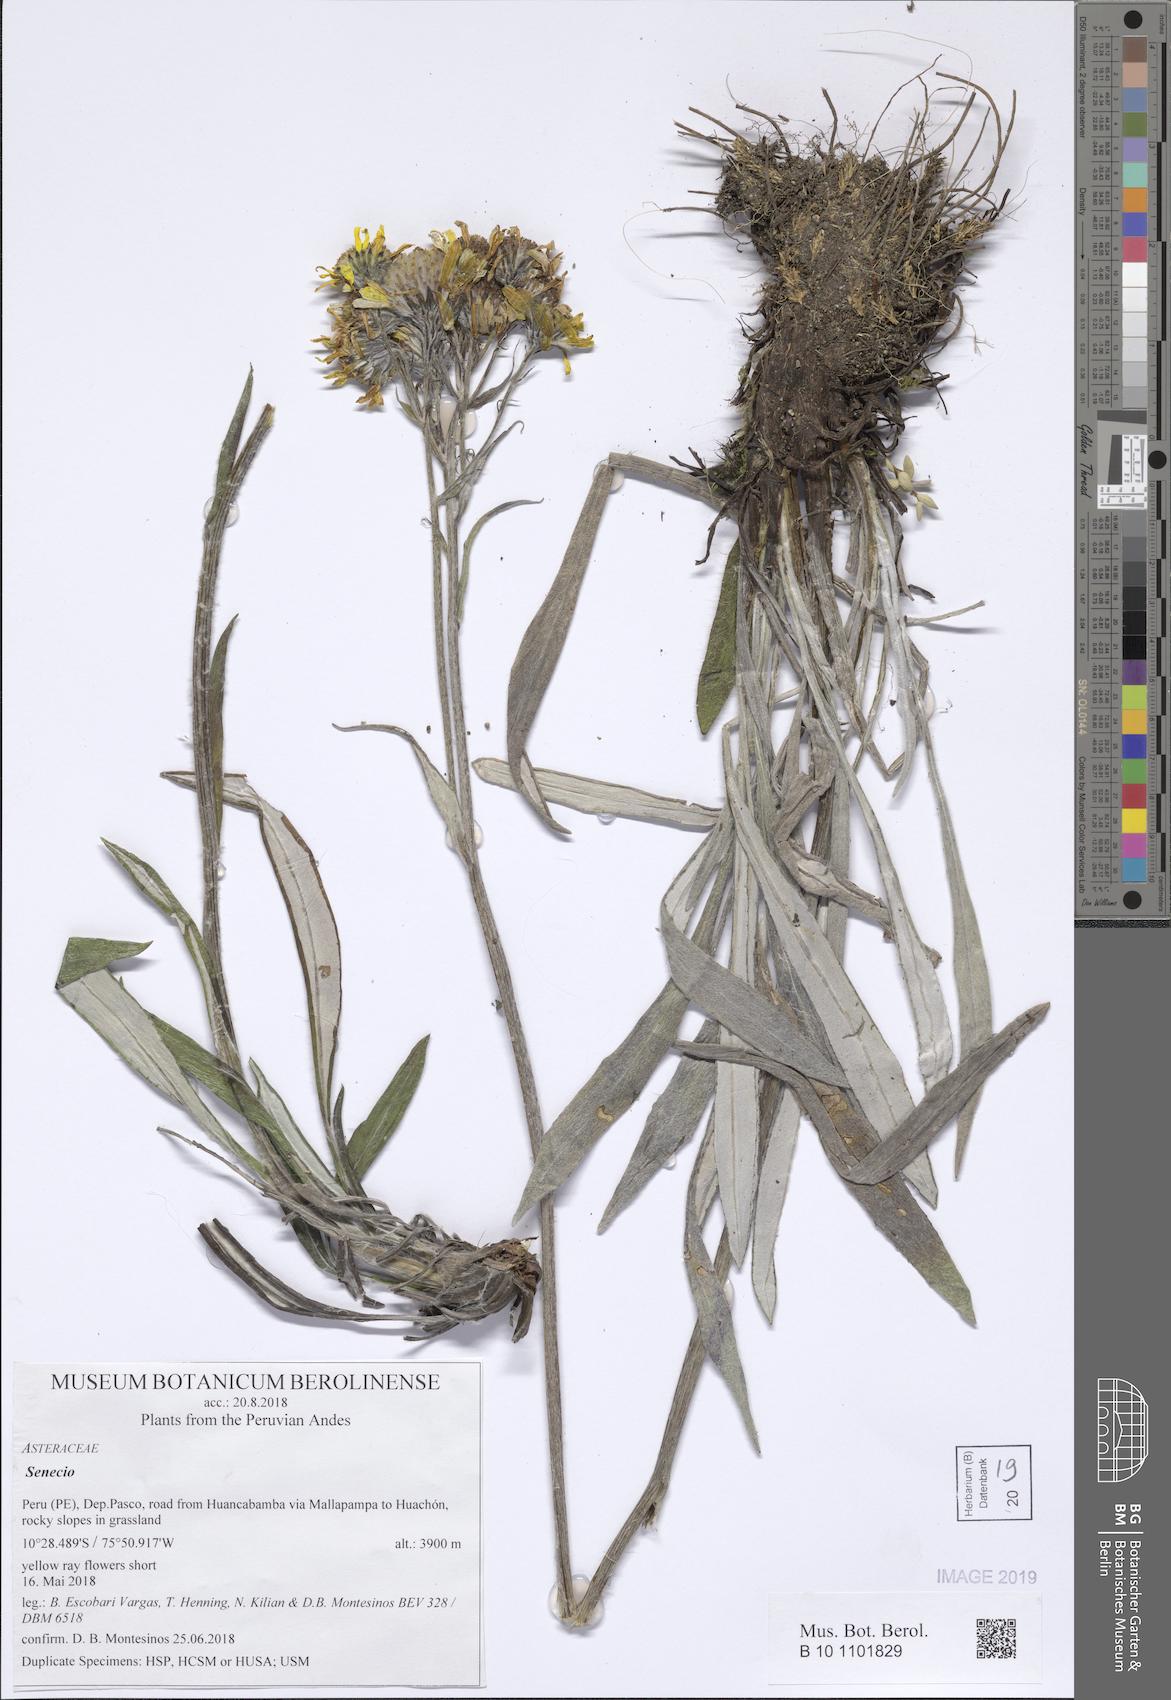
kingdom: Plantae
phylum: Tracheophyta
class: Magnoliopsida
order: Asterales
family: Asteraceae
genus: Senecio
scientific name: Senecio comosus
